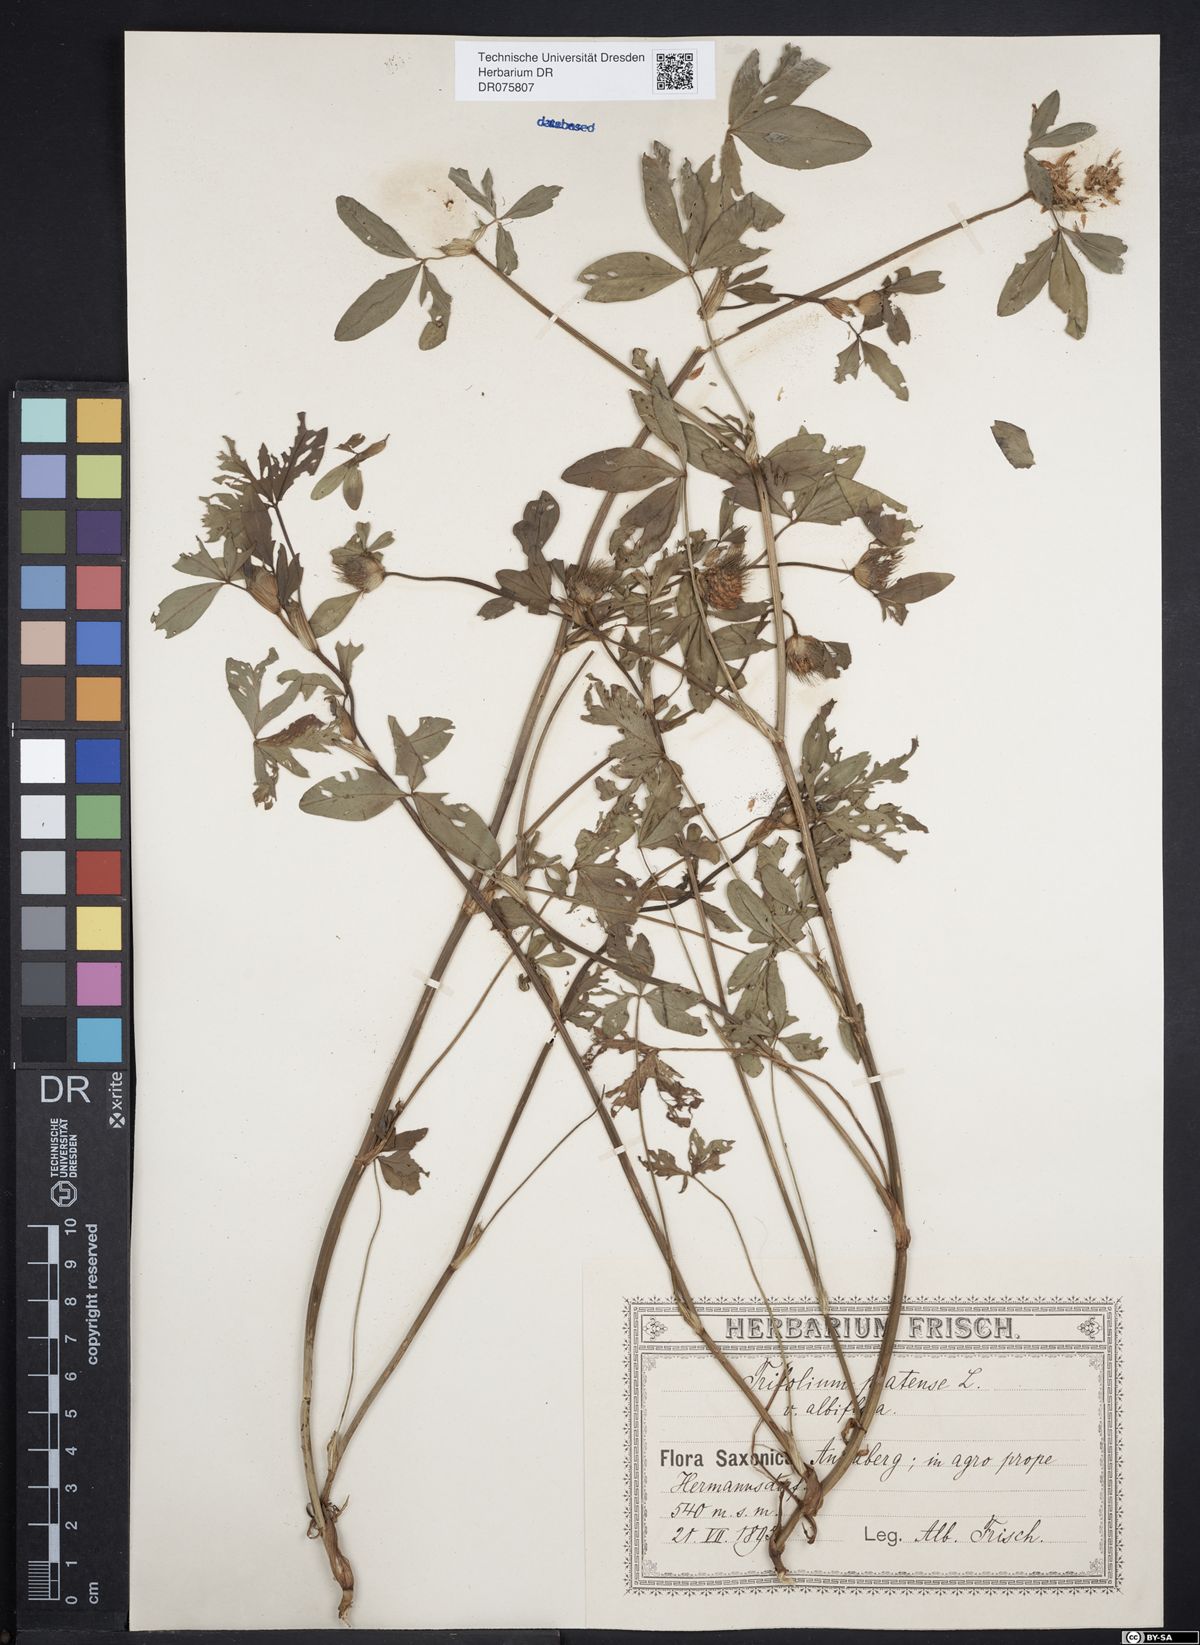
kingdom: Plantae
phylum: Tracheophyta
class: Magnoliopsida
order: Fabales
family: Fabaceae
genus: Trifolium
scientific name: Trifolium pratense
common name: Red clover
